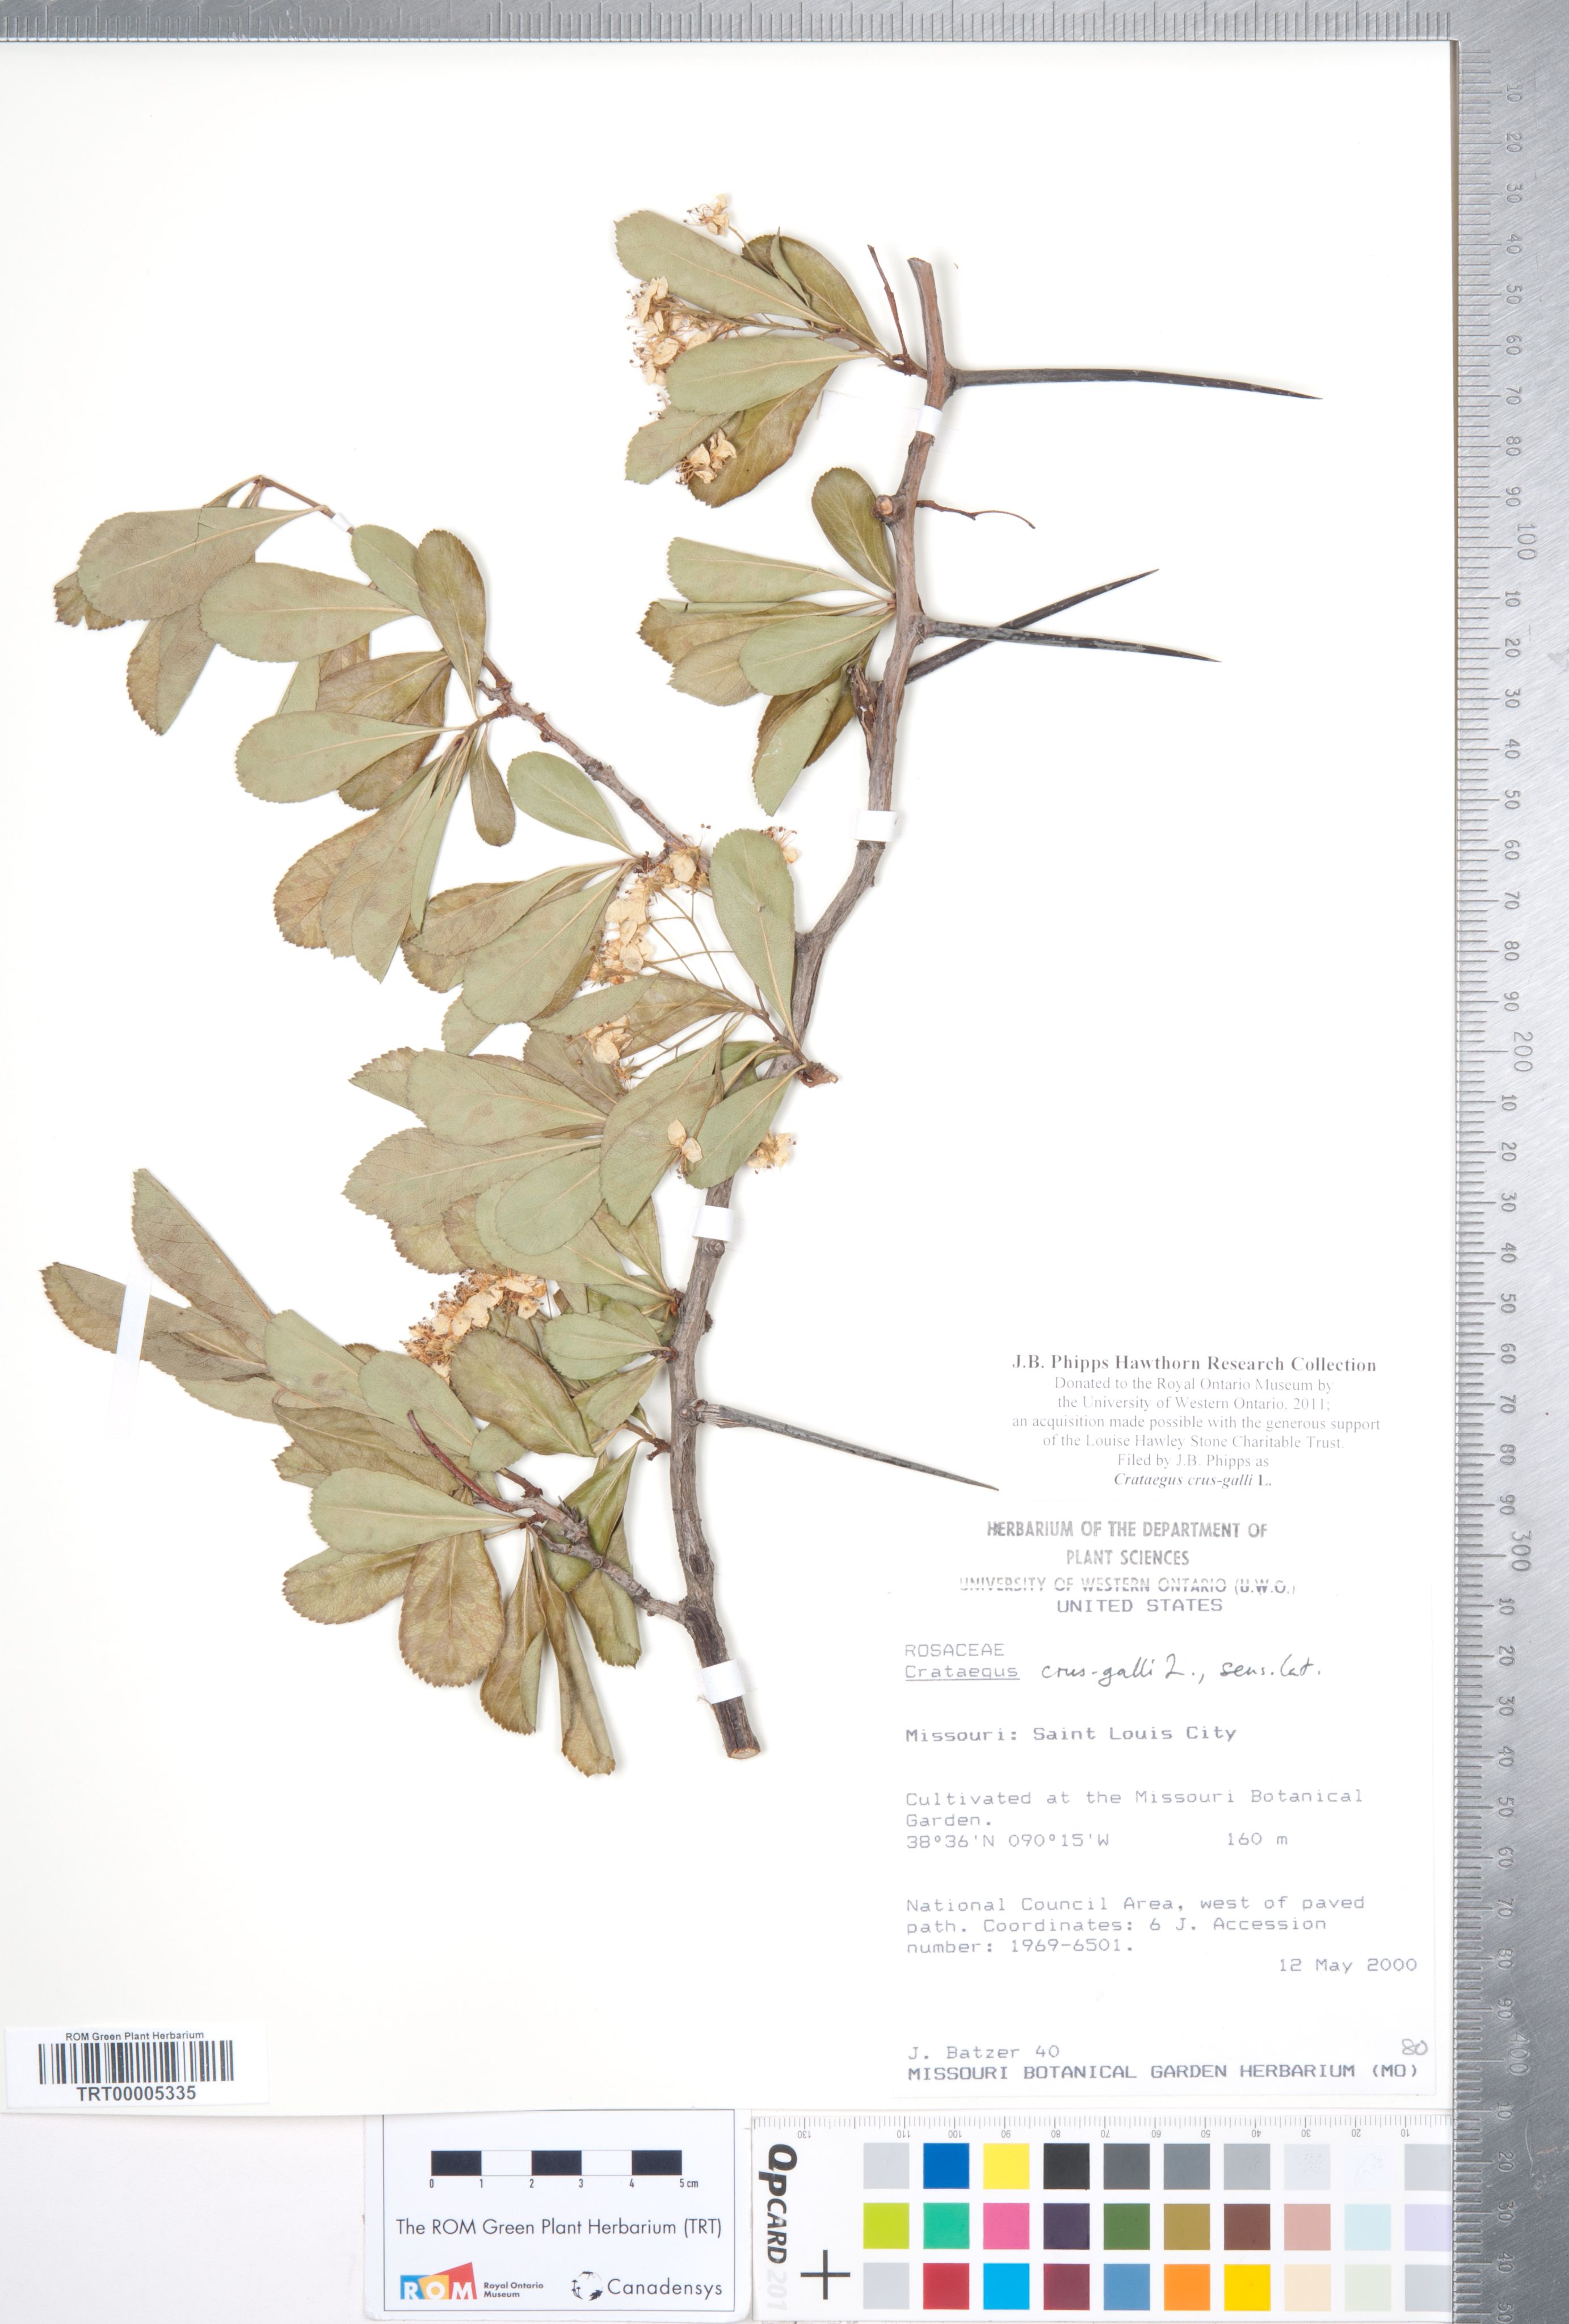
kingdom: Plantae
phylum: Tracheophyta
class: Magnoliopsida
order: Rosales
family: Rosaceae
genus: Crataegus
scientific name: Crataegus crus-galli
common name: Cockspurthorn
